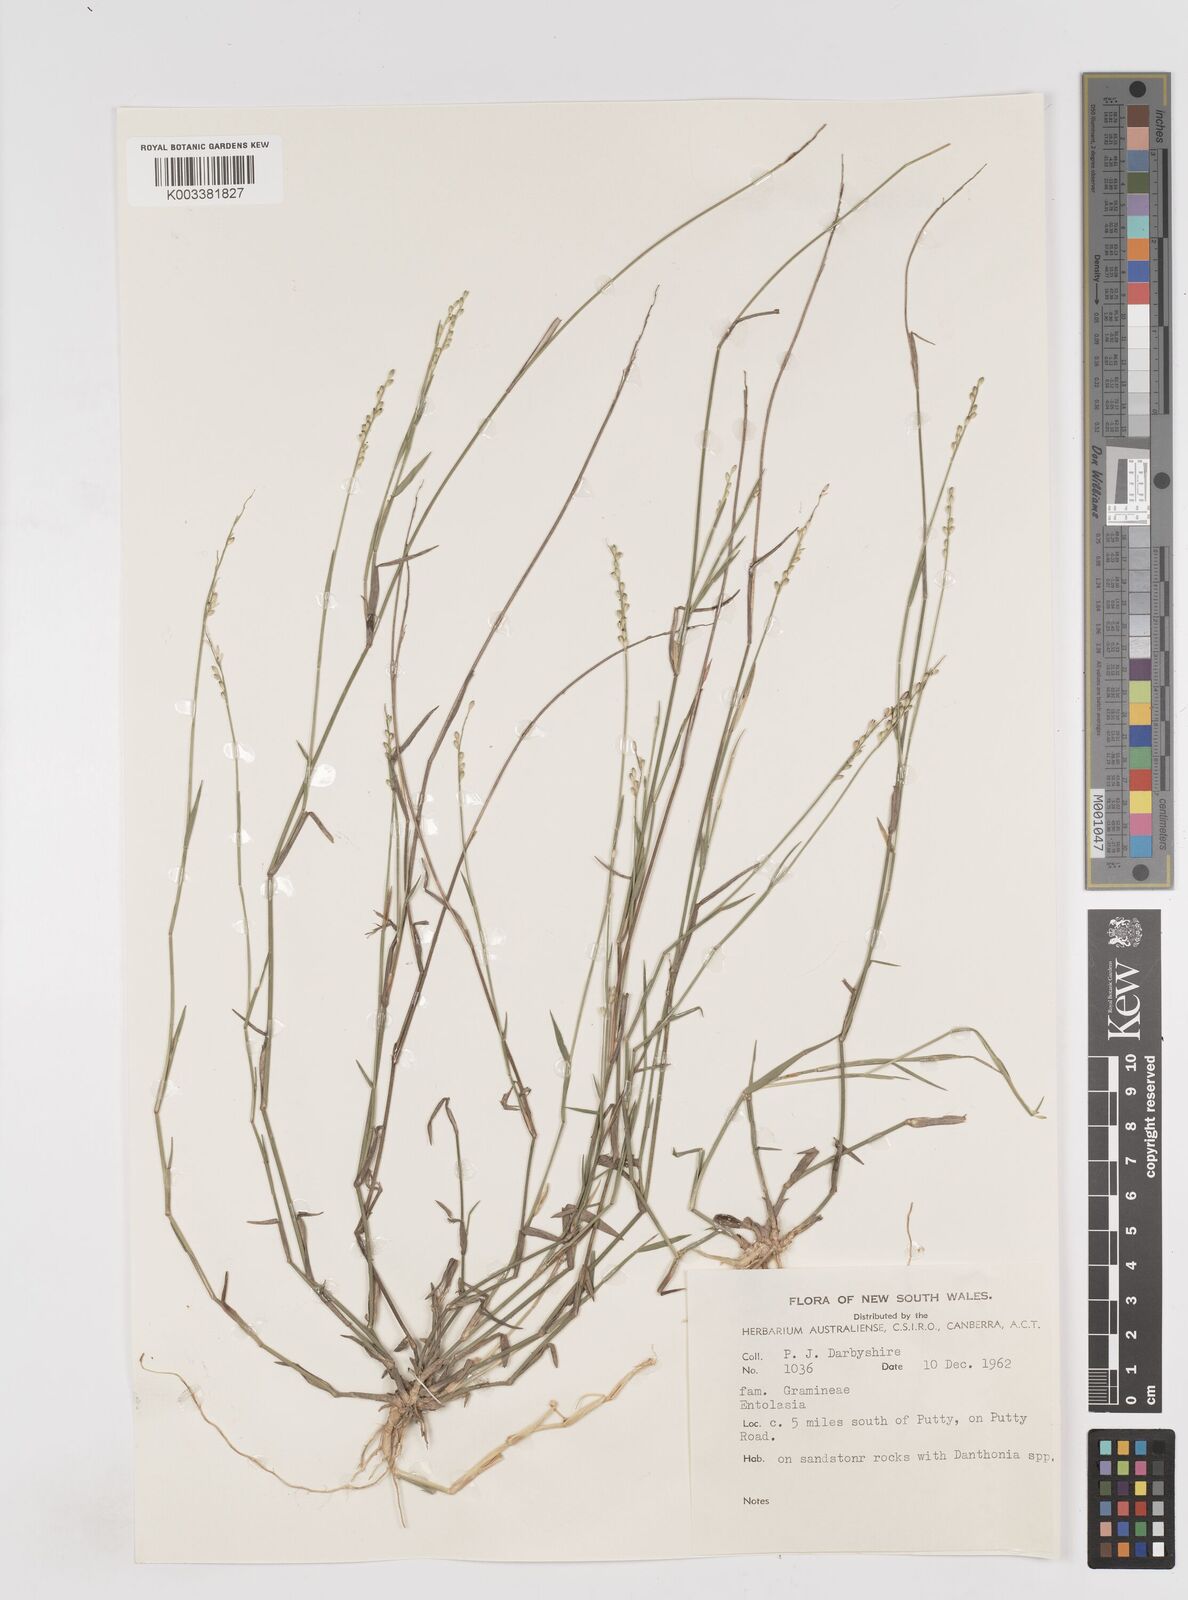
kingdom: Plantae
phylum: Tracheophyta
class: Liliopsida
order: Poales
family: Poaceae
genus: Entolasia
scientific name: Entolasia
